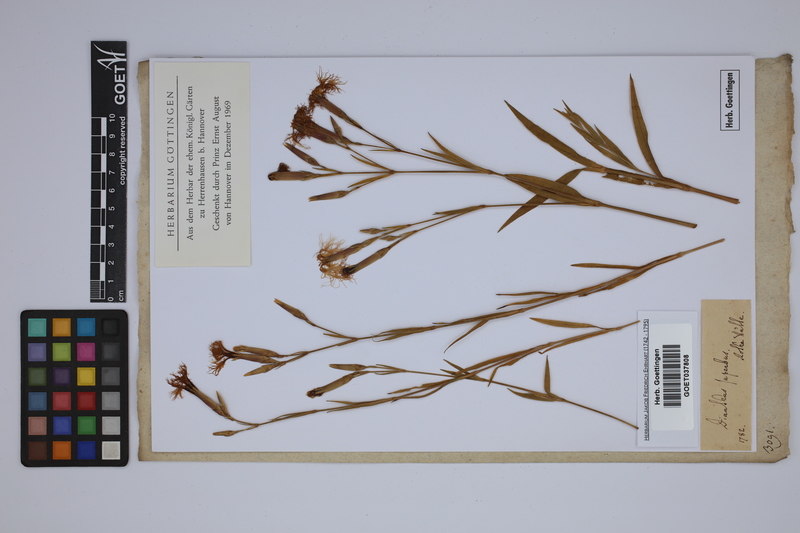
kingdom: Plantae
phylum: Tracheophyta
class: Magnoliopsida
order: Caryophyllales
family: Caryophyllaceae
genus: Dianthus
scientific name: Dianthus superbus
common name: Fringed pink
